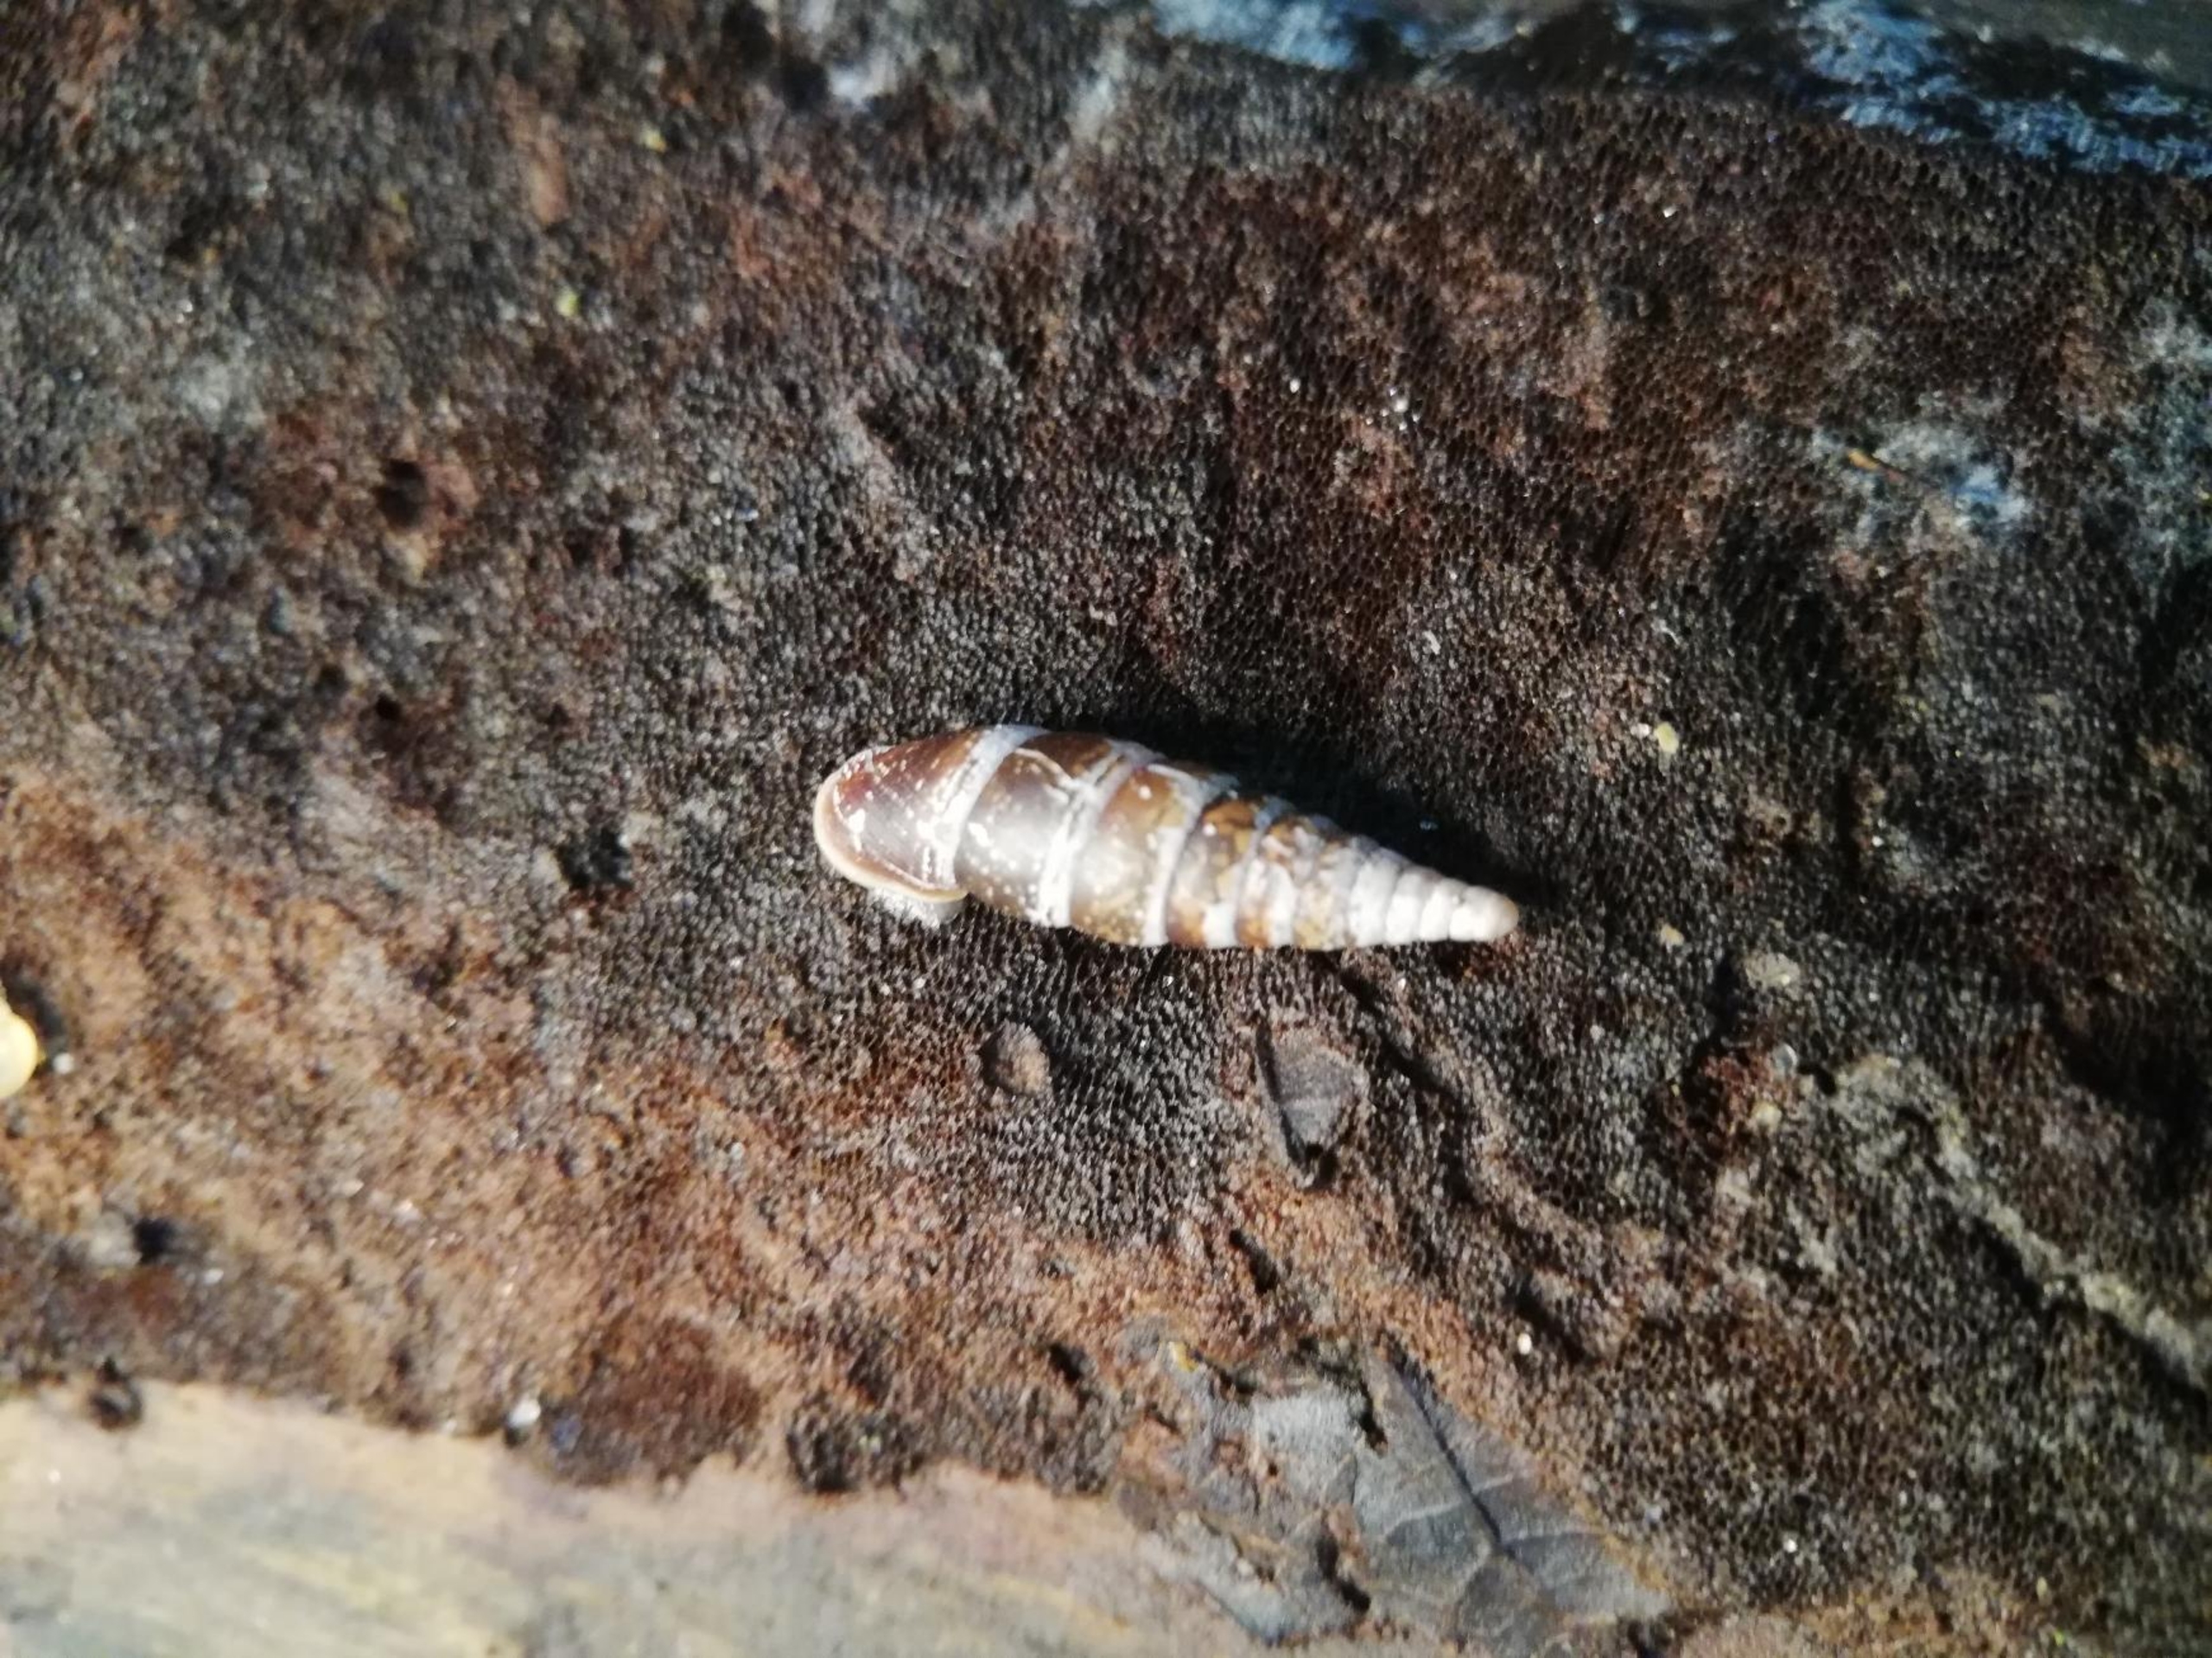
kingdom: Animalia
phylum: Mollusca
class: Gastropoda
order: Stylommatophora
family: Clausiliidae
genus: Cochlodina
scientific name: Cochlodina laminata
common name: Glat foldsnegl
